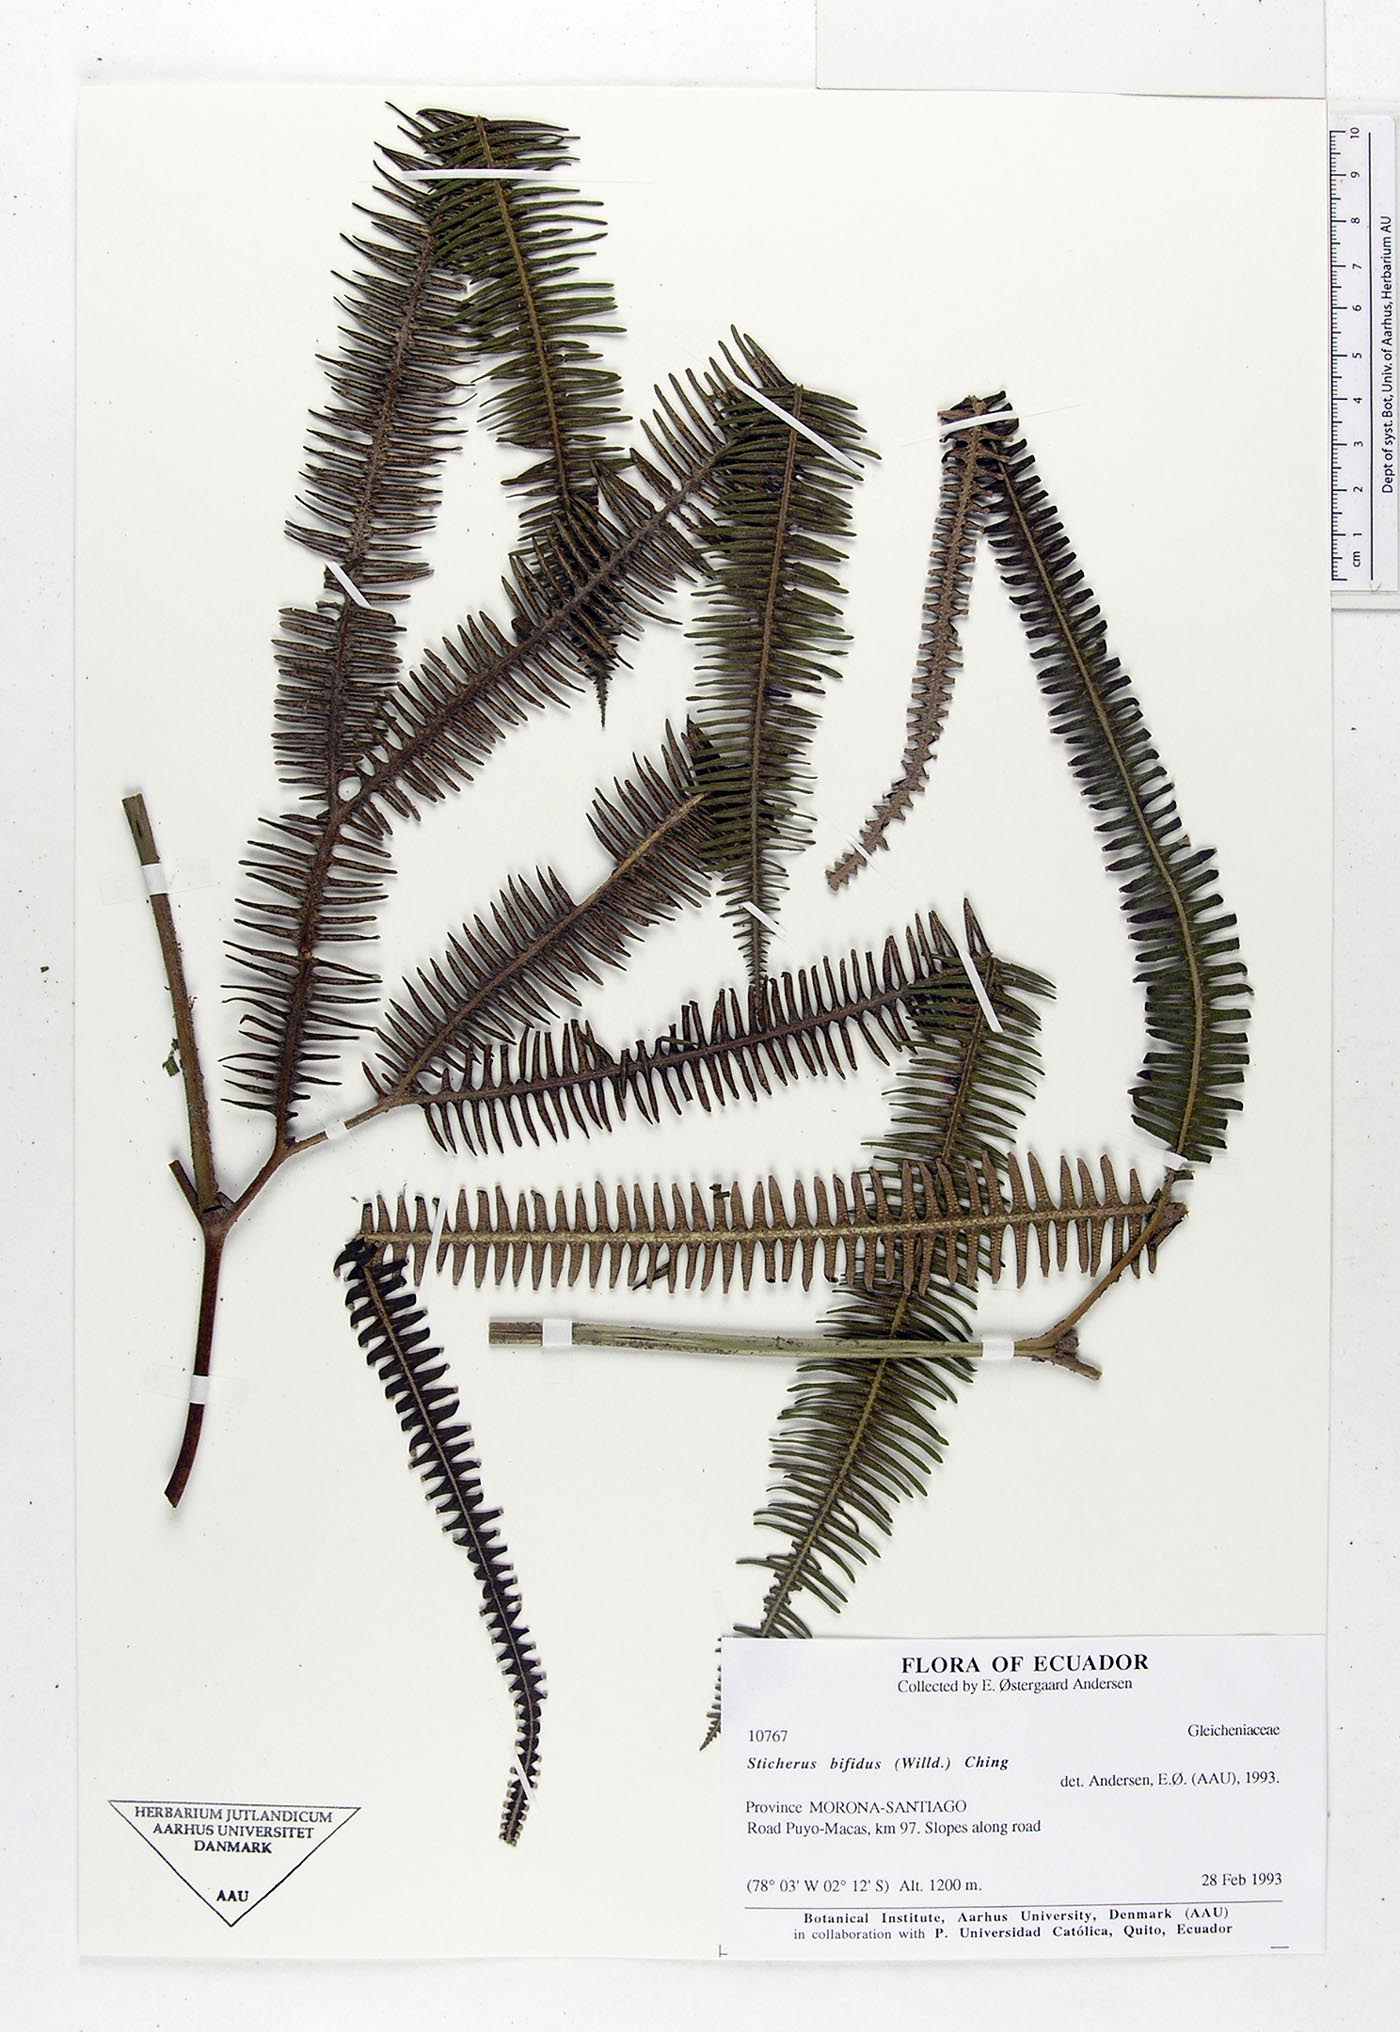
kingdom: Plantae
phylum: Tracheophyta
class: Polypodiopsida
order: Gleicheniales
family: Gleicheniaceae
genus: Sticherus
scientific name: Sticherus bifidus
